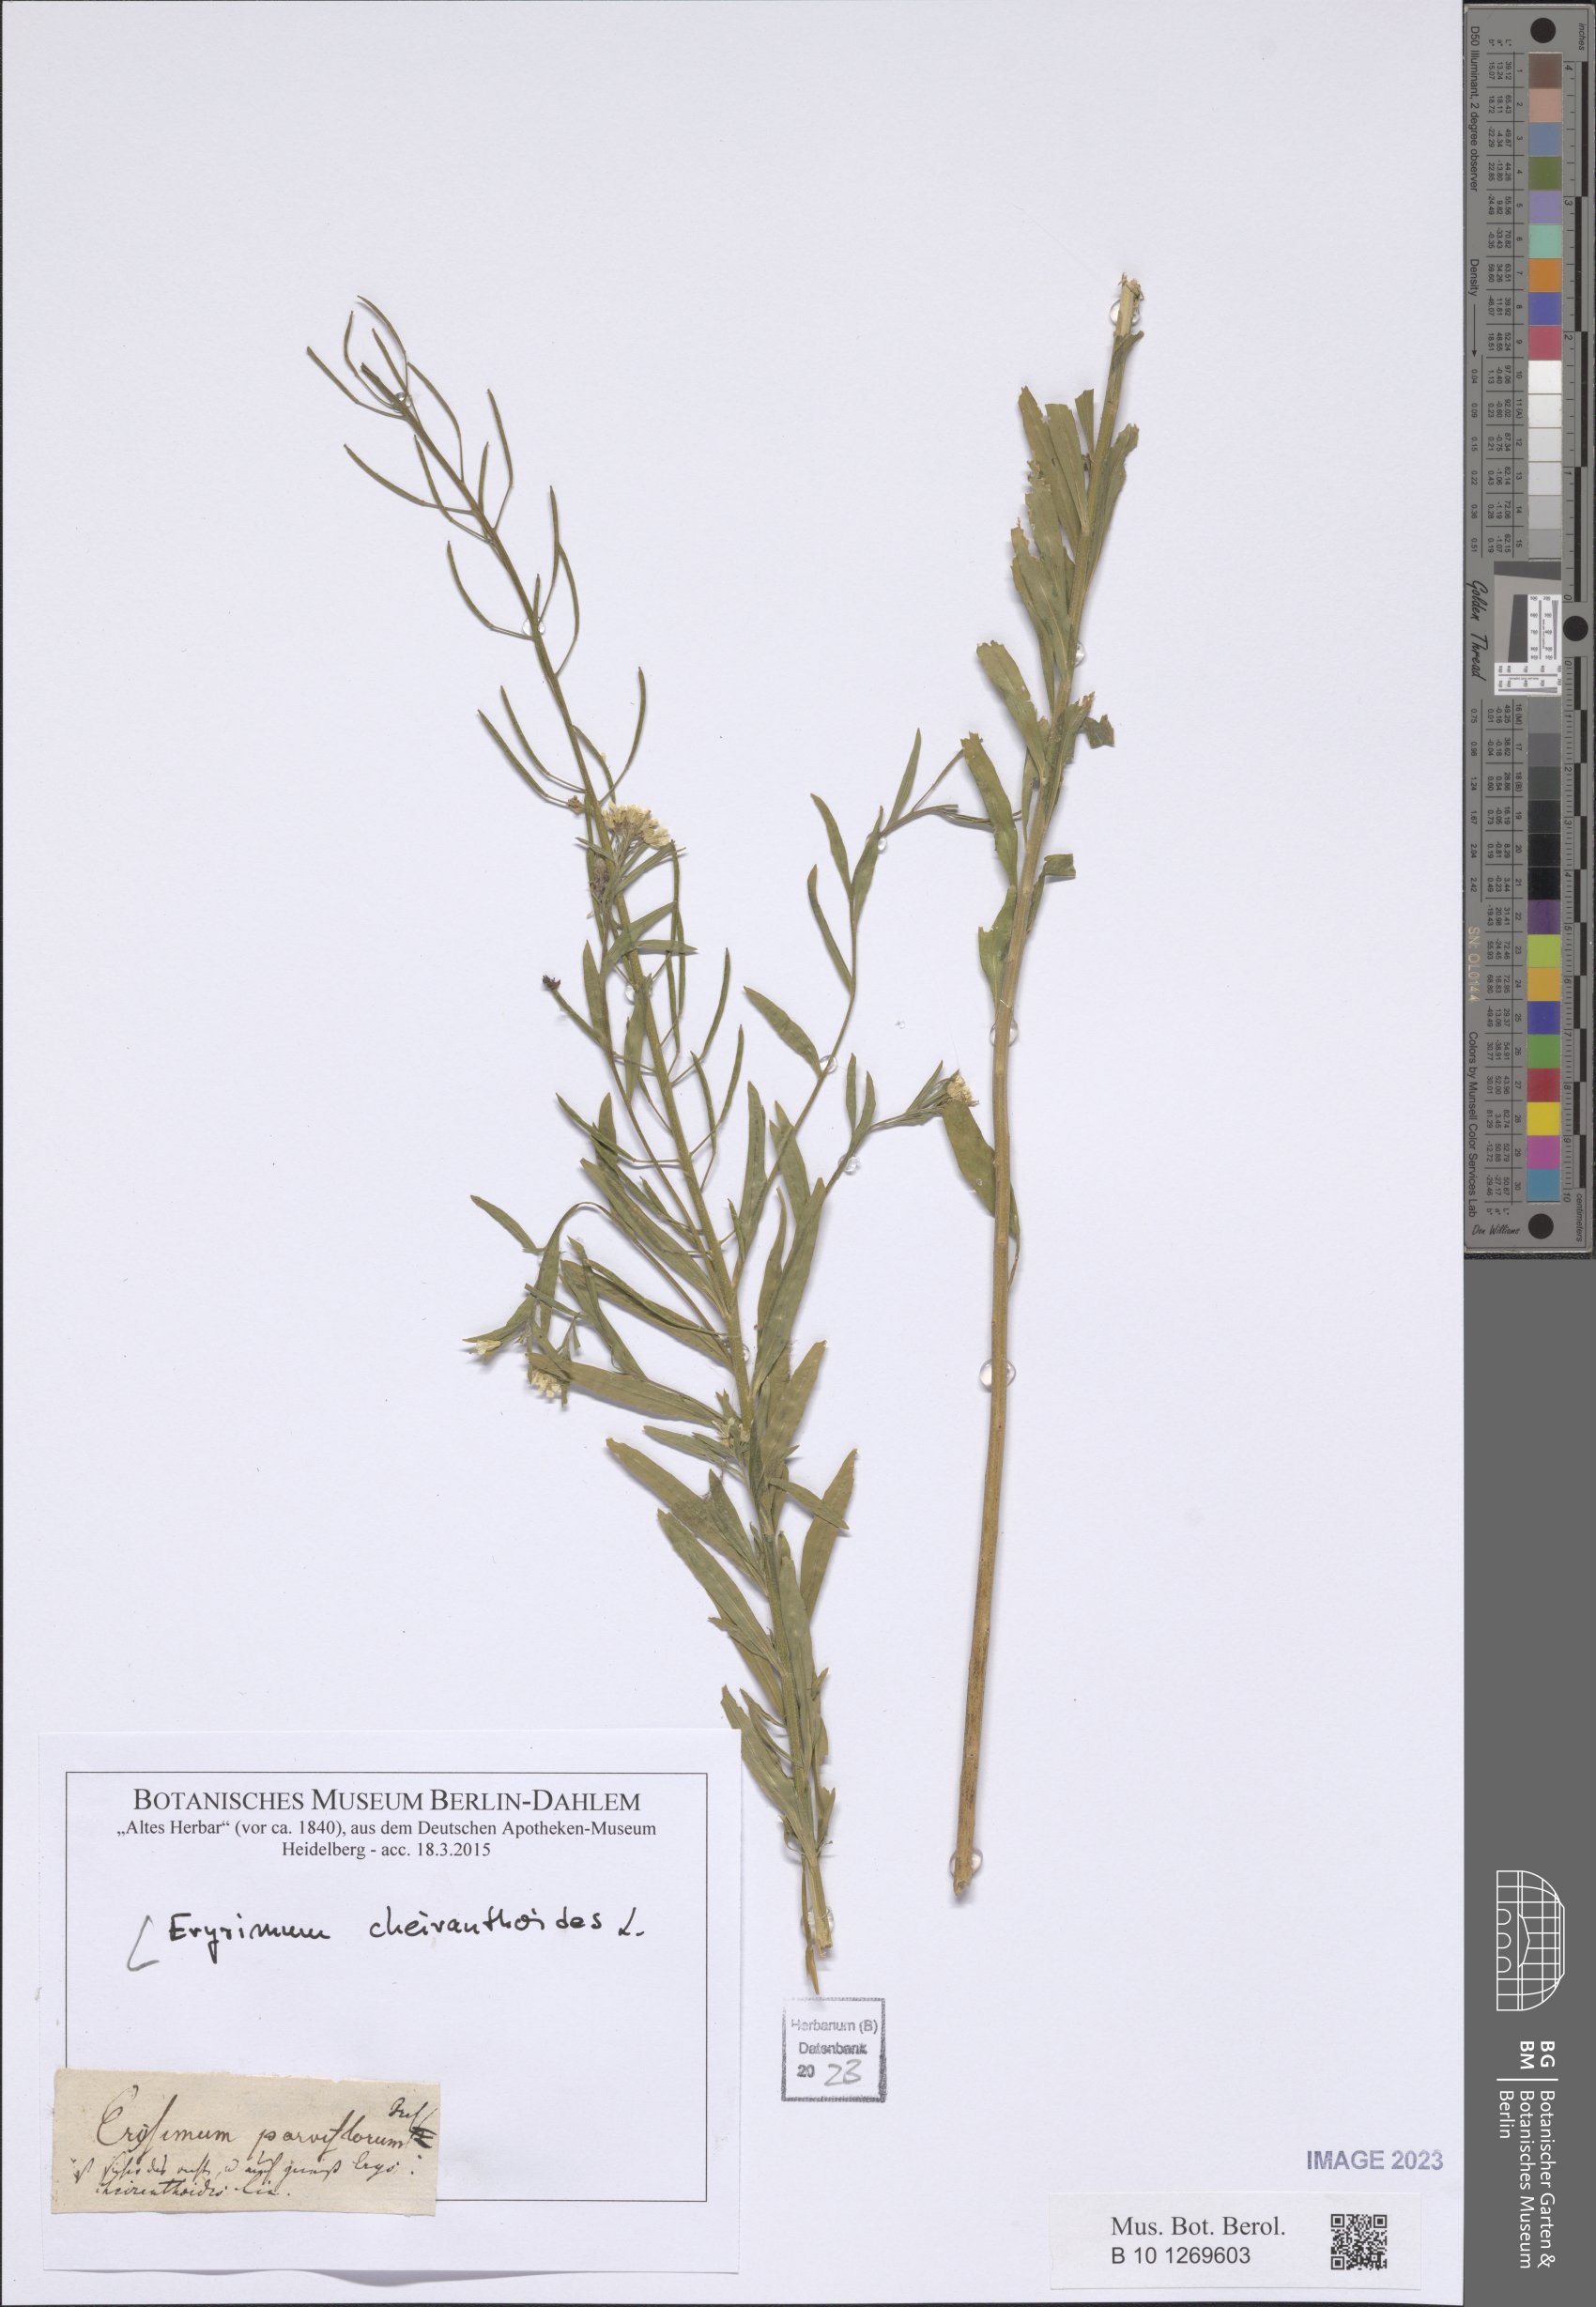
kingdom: Plantae
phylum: Tracheophyta
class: Magnoliopsida
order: Brassicales
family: Brassicaceae
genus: Erysimum
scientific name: Erysimum cheiranthoides
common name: Treacle mustard
